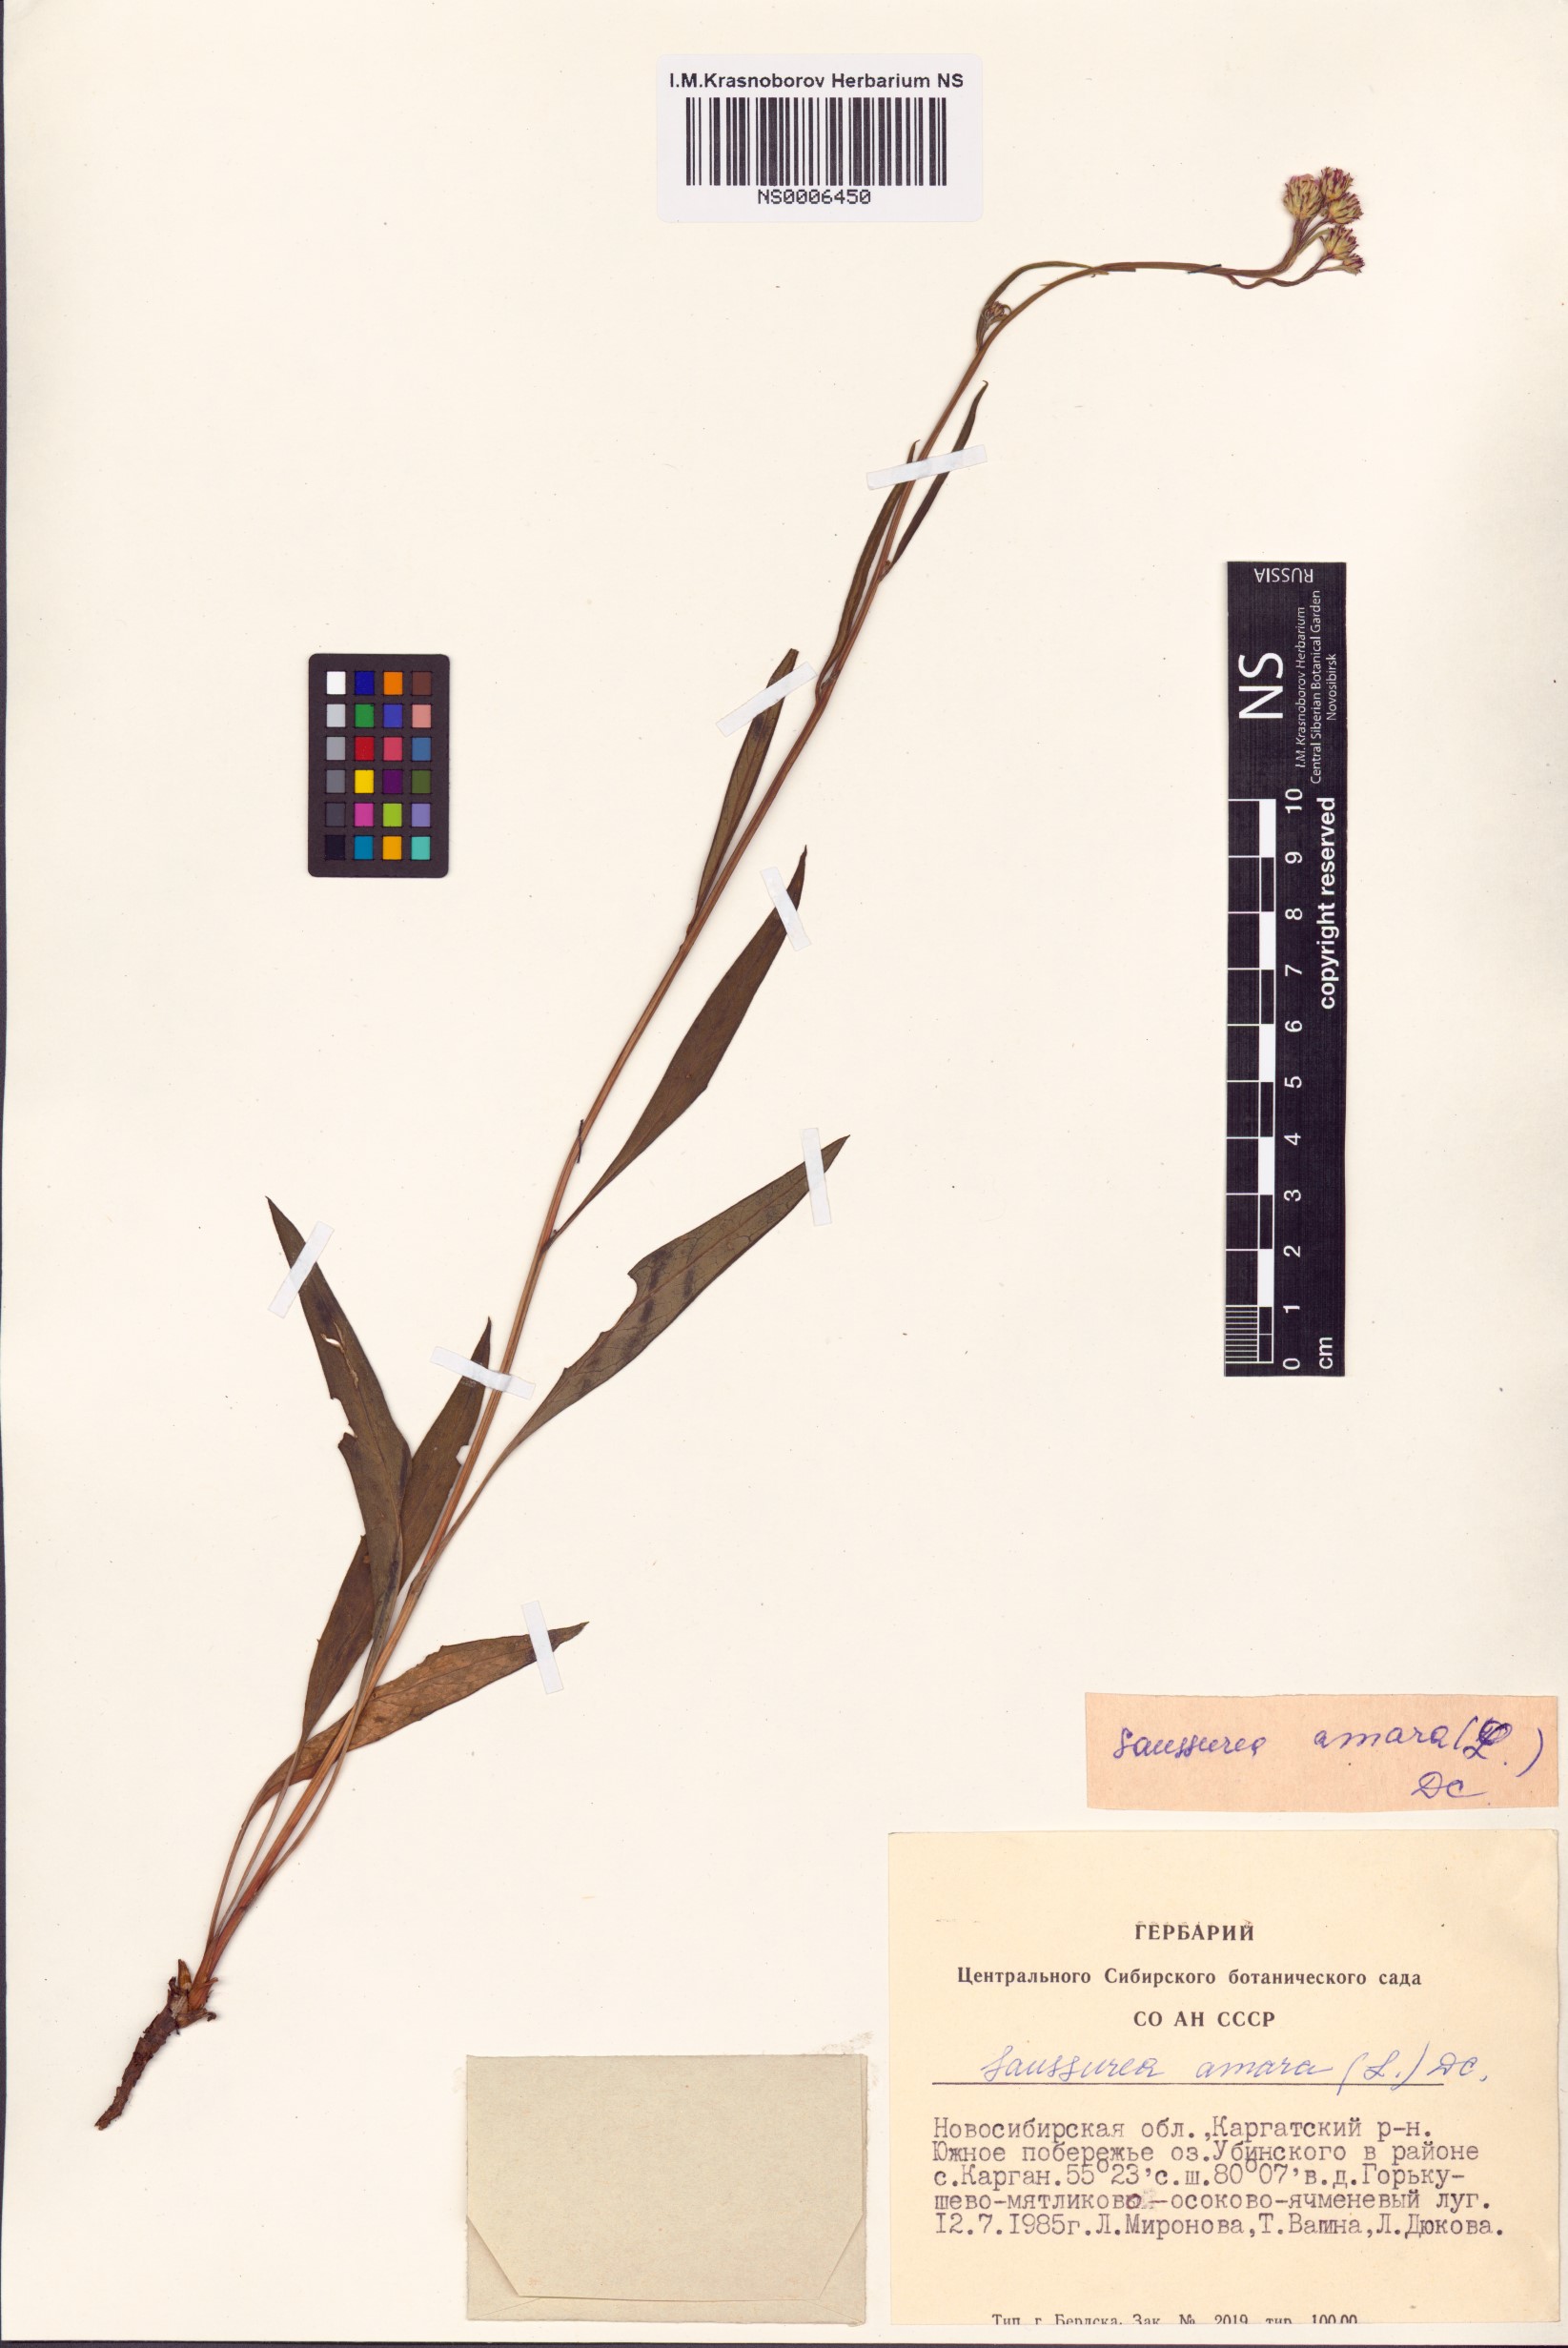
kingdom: Plantae
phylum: Tracheophyta
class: Magnoliopsida
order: Asterales
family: Asteraceae
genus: Saussurea
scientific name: Saussurea amara
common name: Alberta sawwort
